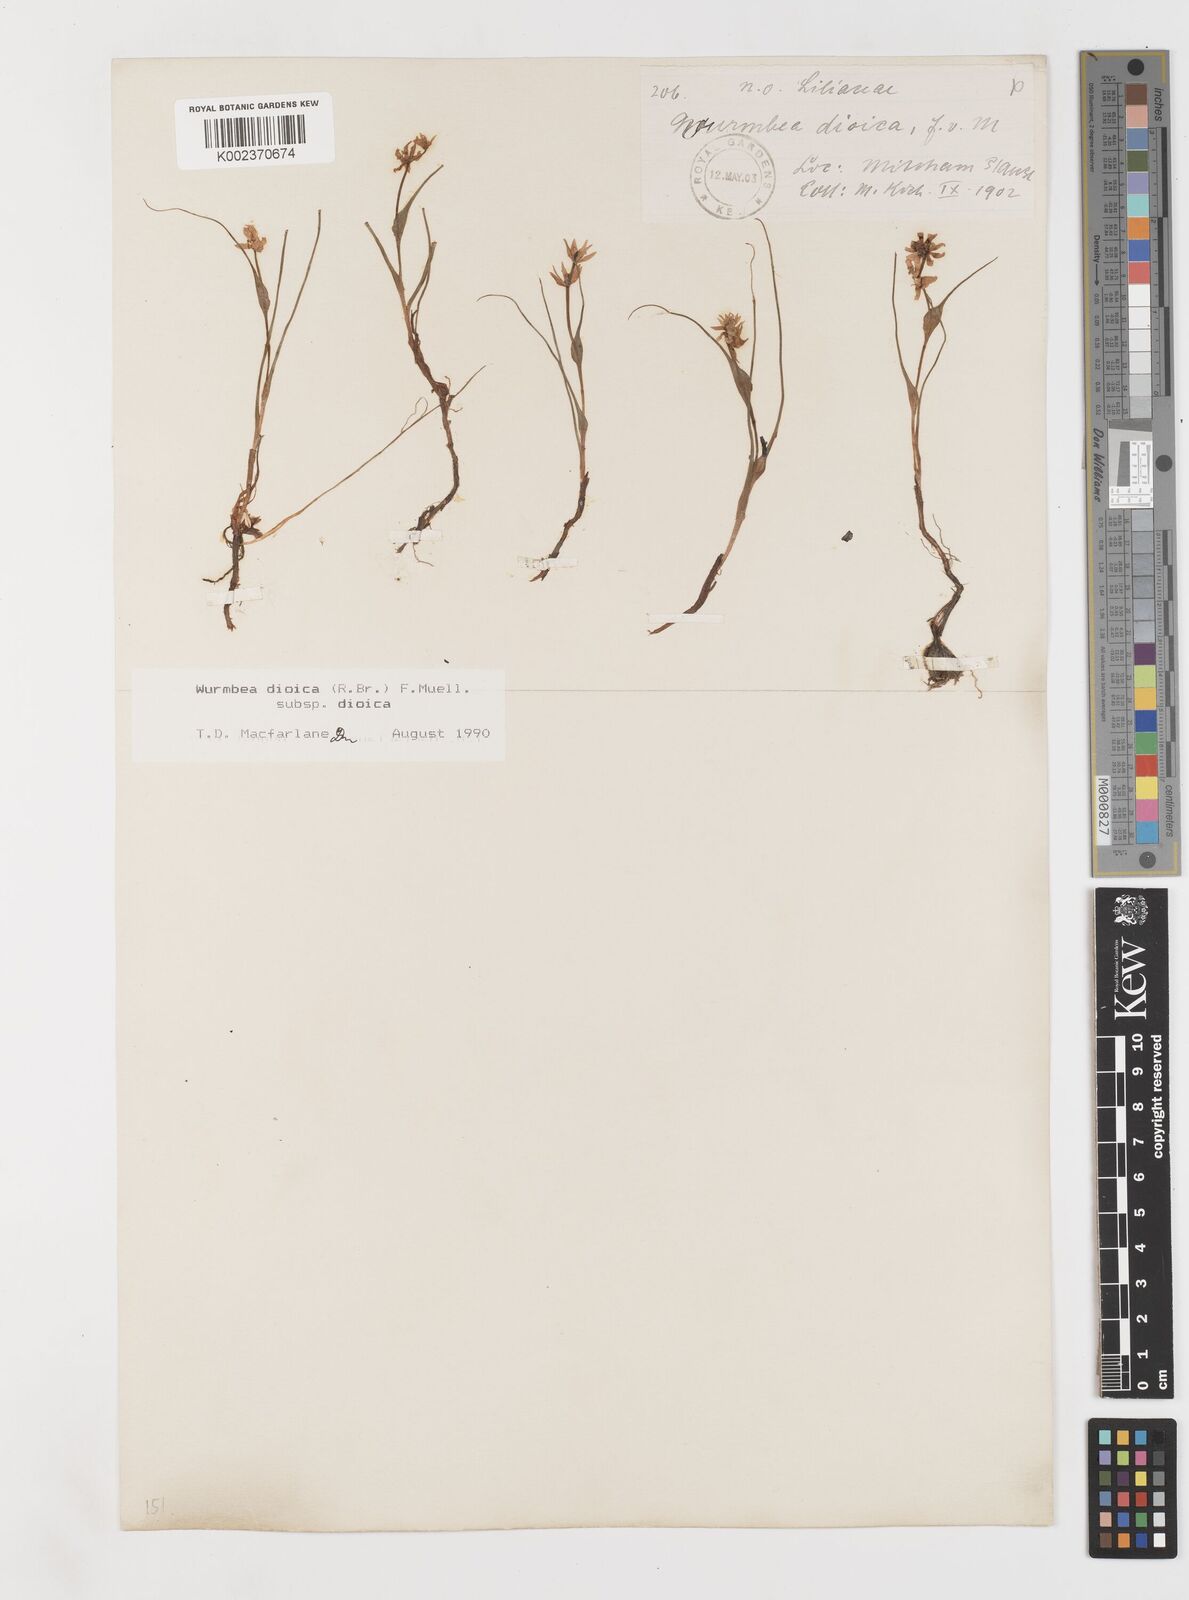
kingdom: Plantae
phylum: Tracheophyta
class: Liliopsida
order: Liliales
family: Colchicaceae
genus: Wurmbea
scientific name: Wurmbea dioica
